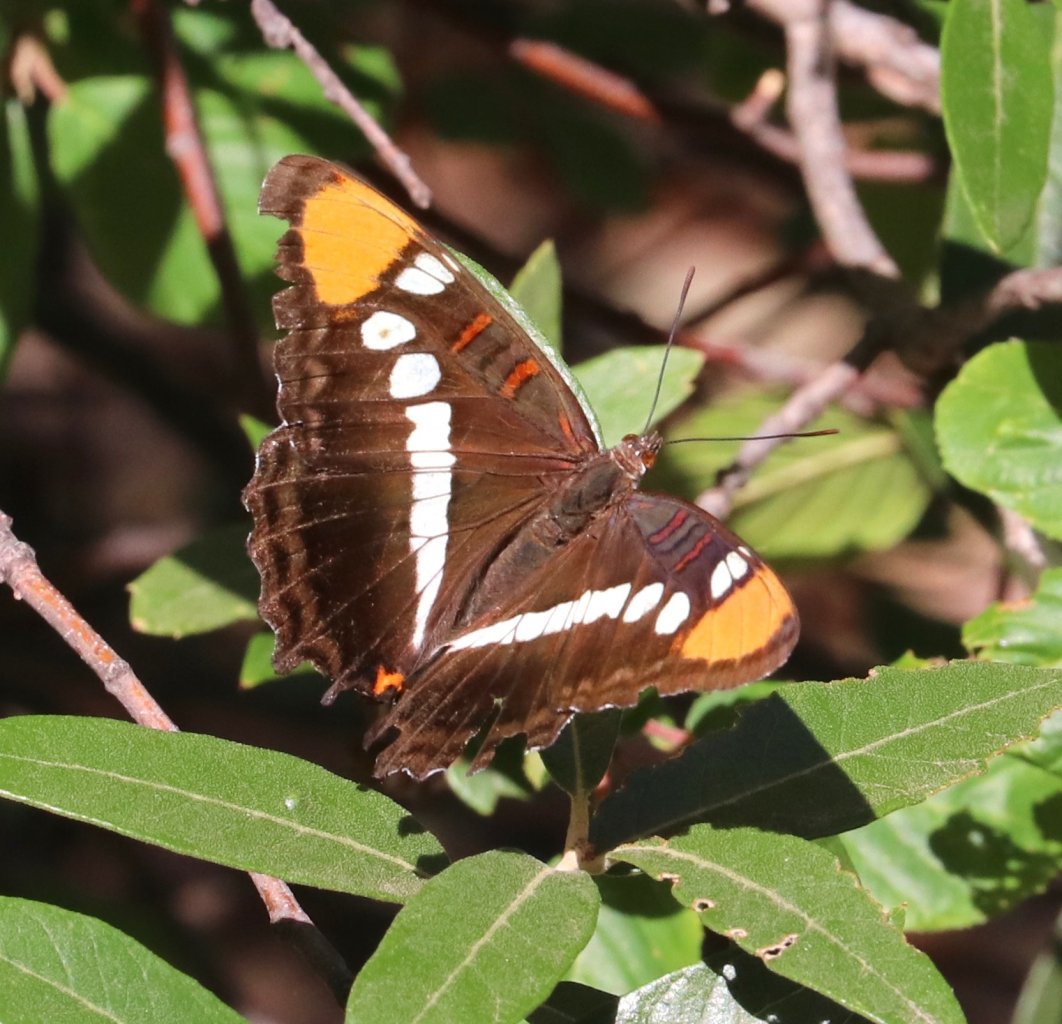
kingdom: Animalia
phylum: Arthropoda
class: Insecta
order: Lepidoptera
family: Nymphalidae
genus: Limenitis
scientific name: Limenitis bredowii
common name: Arizona Sister
